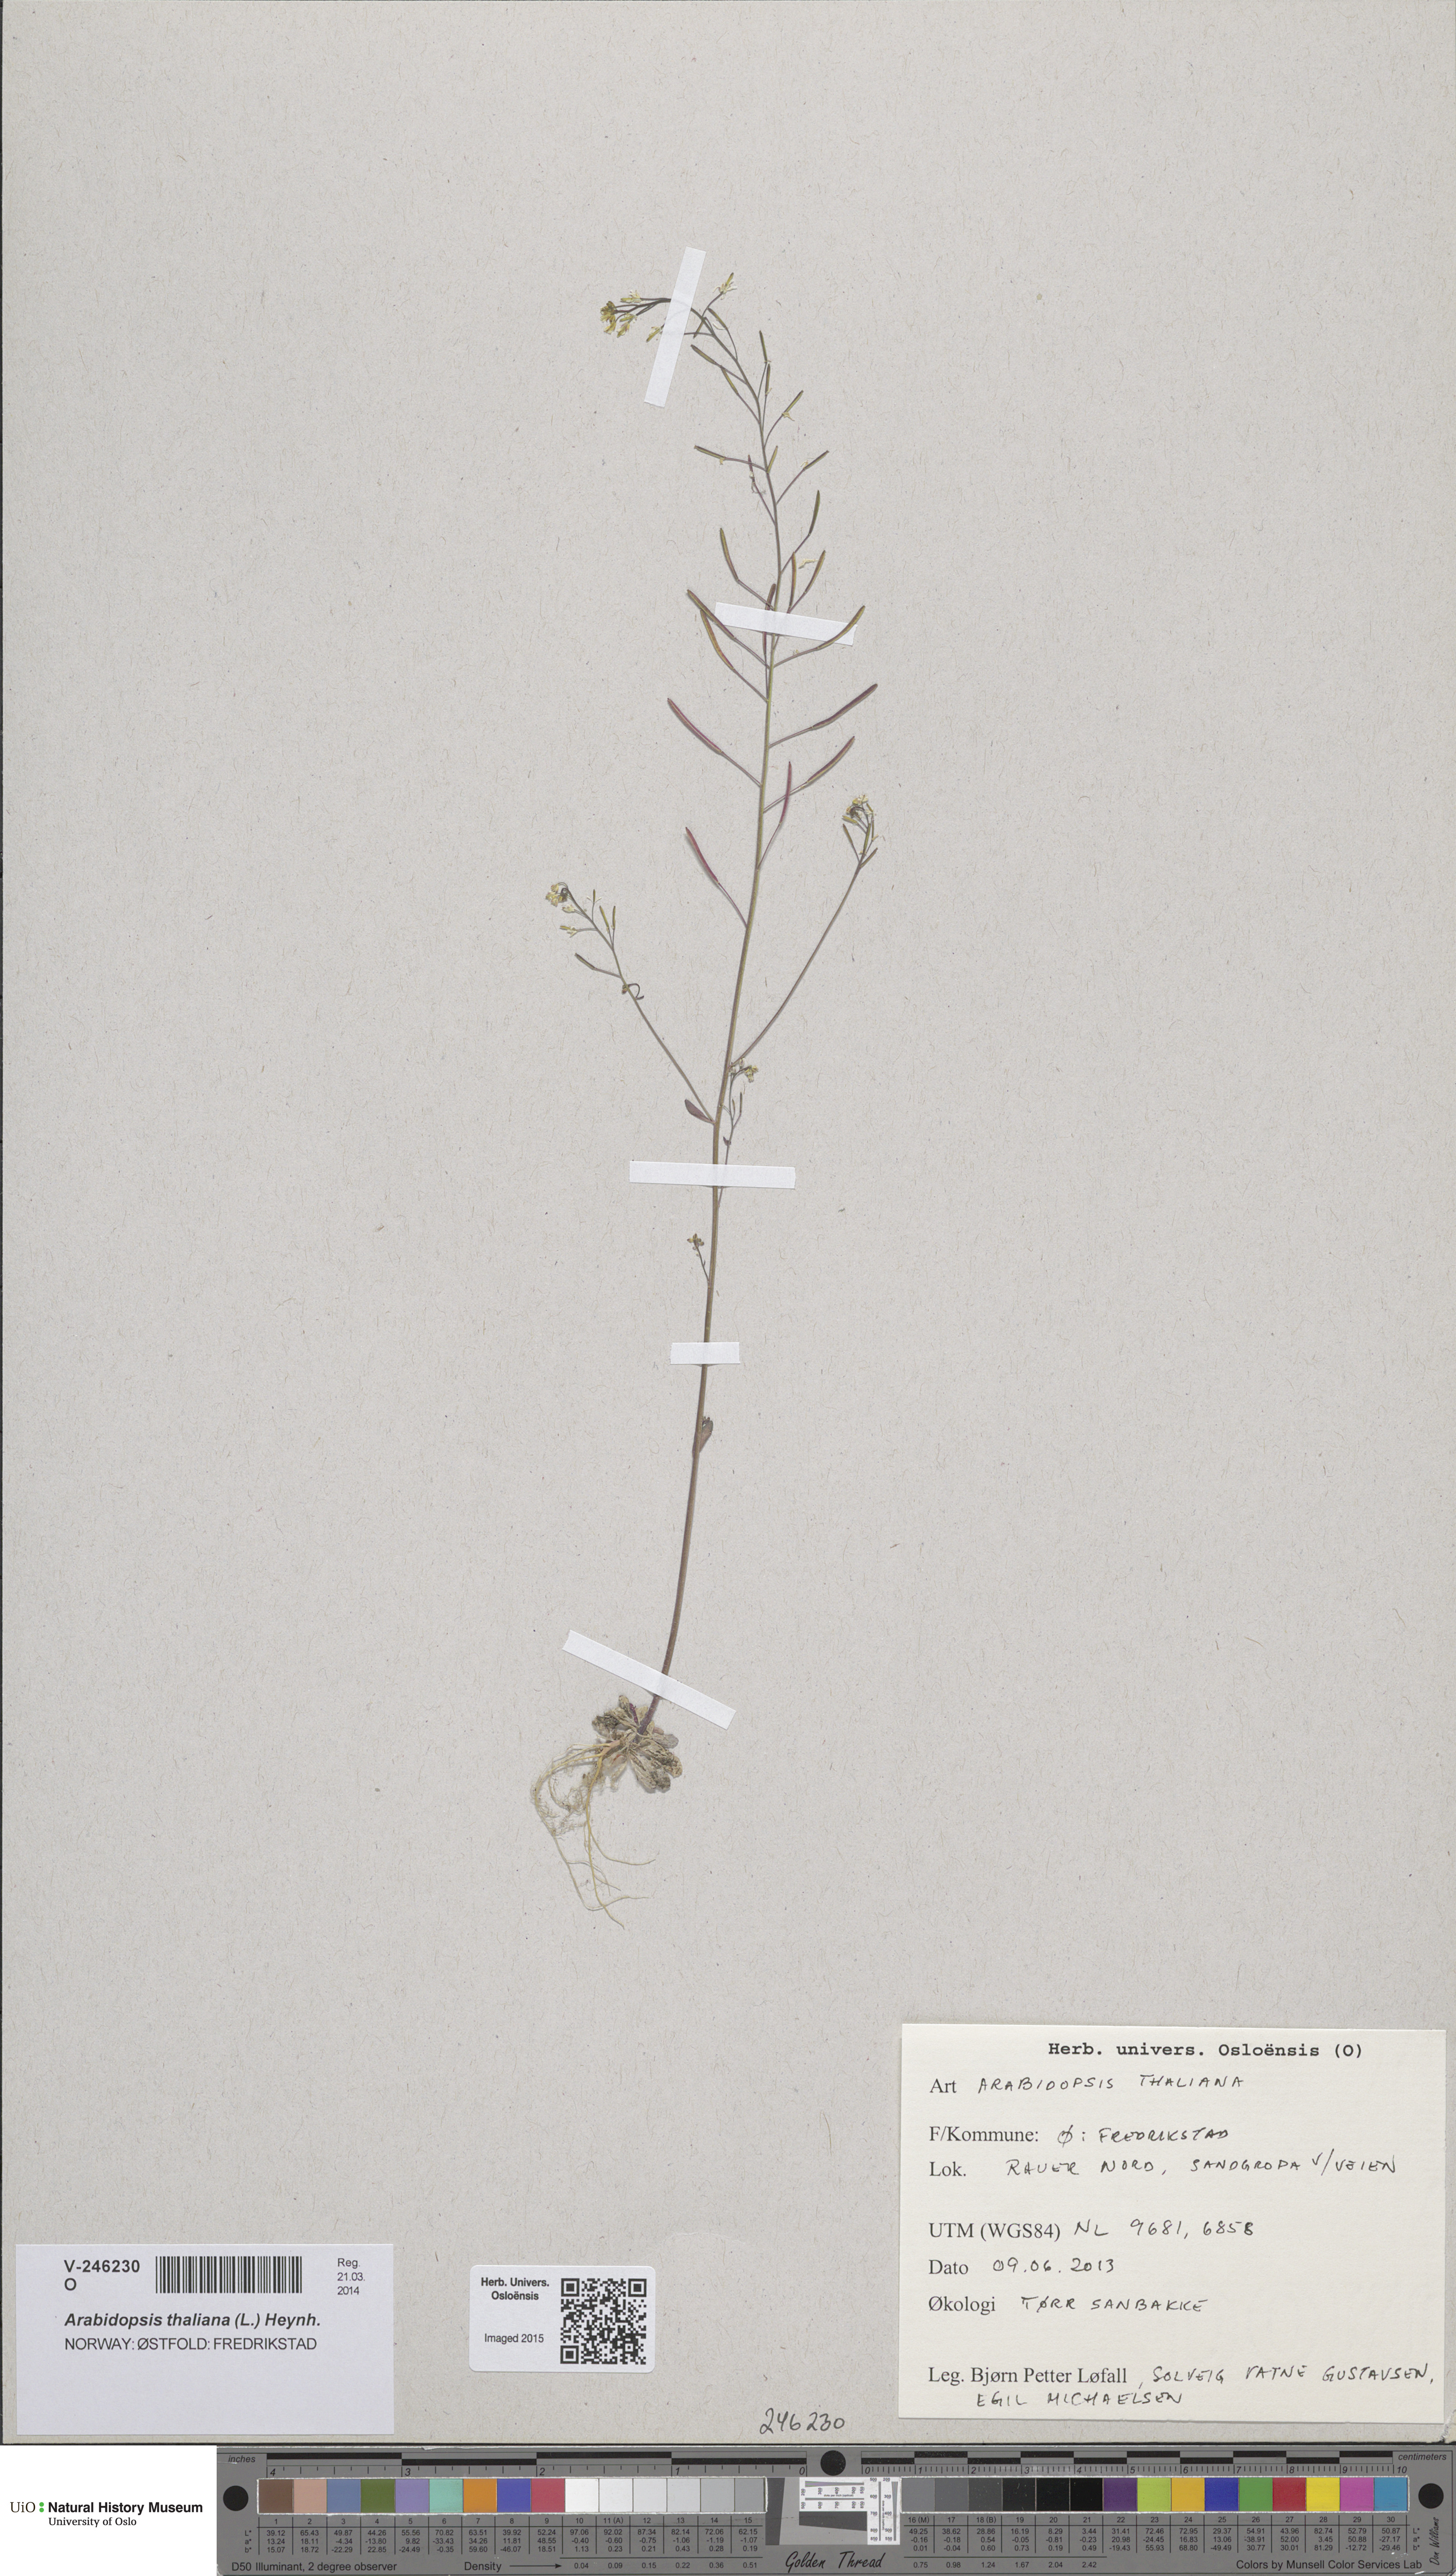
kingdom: Plantae
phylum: Tracheophyta
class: Magnoliopsida
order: Brassicales
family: Brassicaceae
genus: Arabidopsis
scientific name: Arabidopsis thaliana
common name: Thale cress
